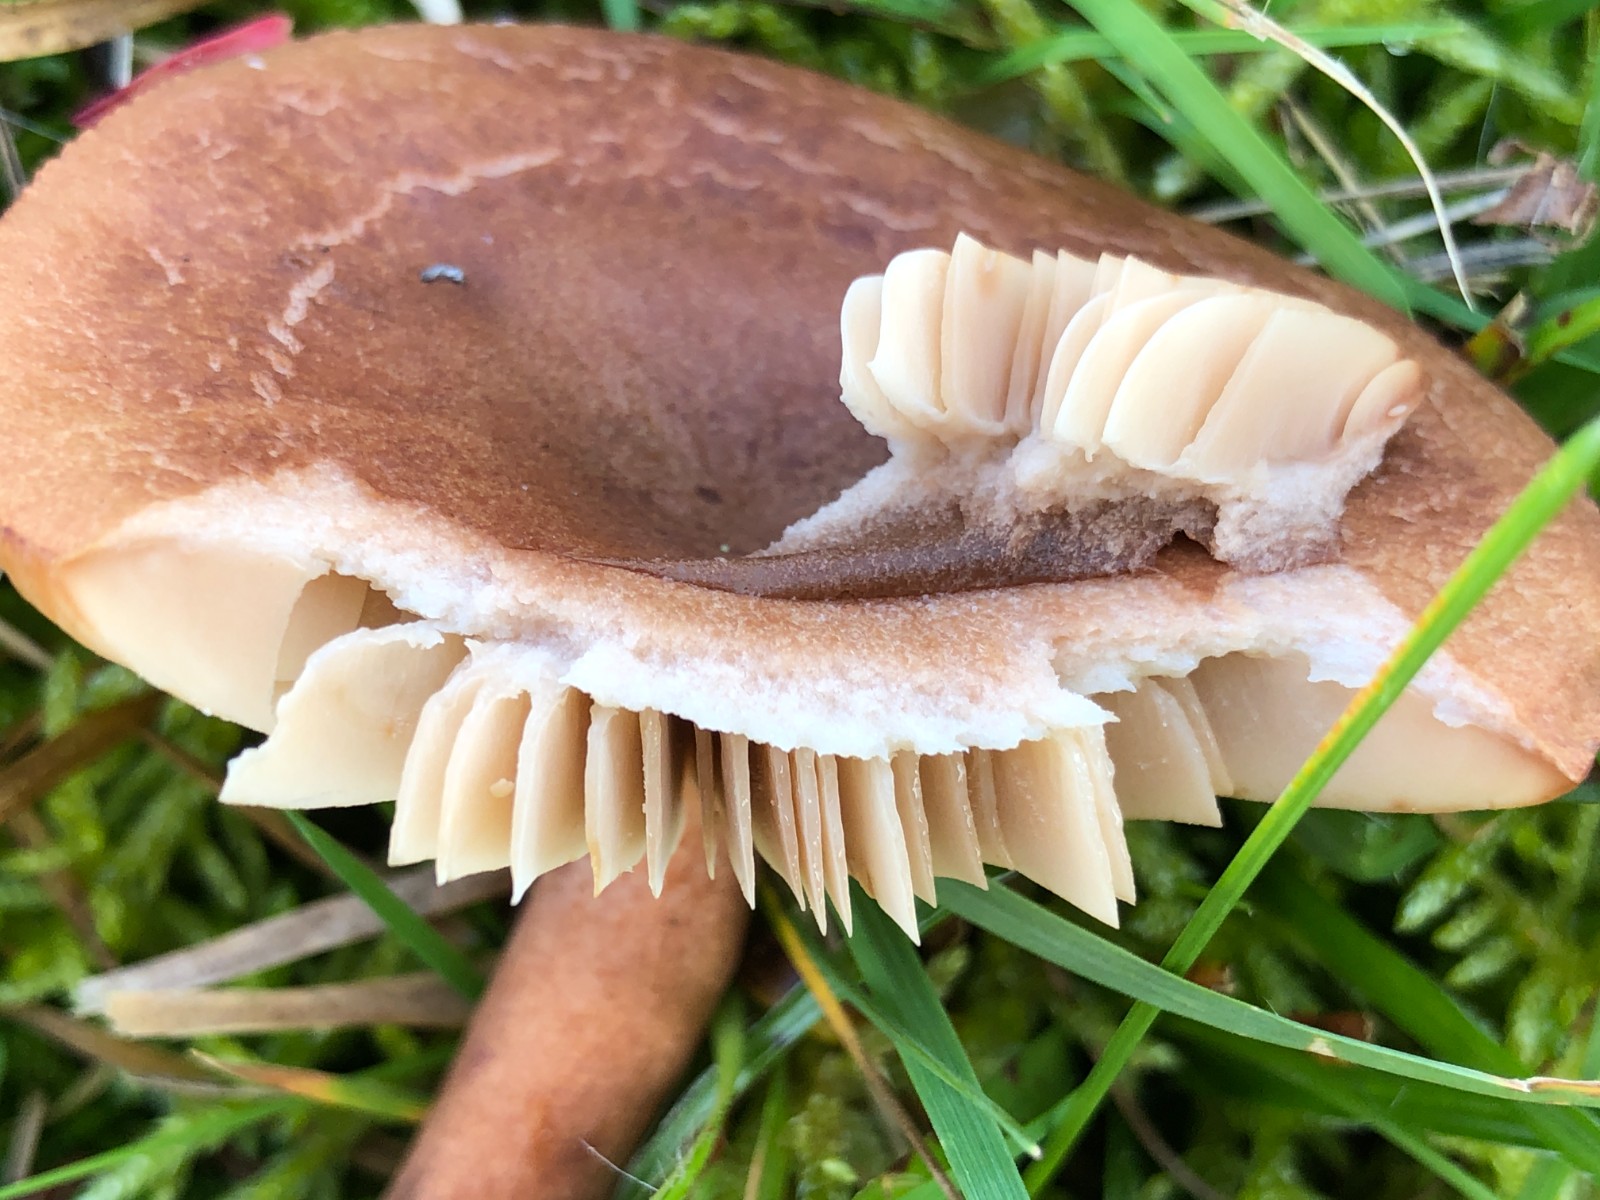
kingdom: Fungi
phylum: Basidiomycota
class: Agaricomycetes
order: Russulales
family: Russulaceae
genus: Lactarius
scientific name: Lactarius quietus
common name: ege-mælkehat
